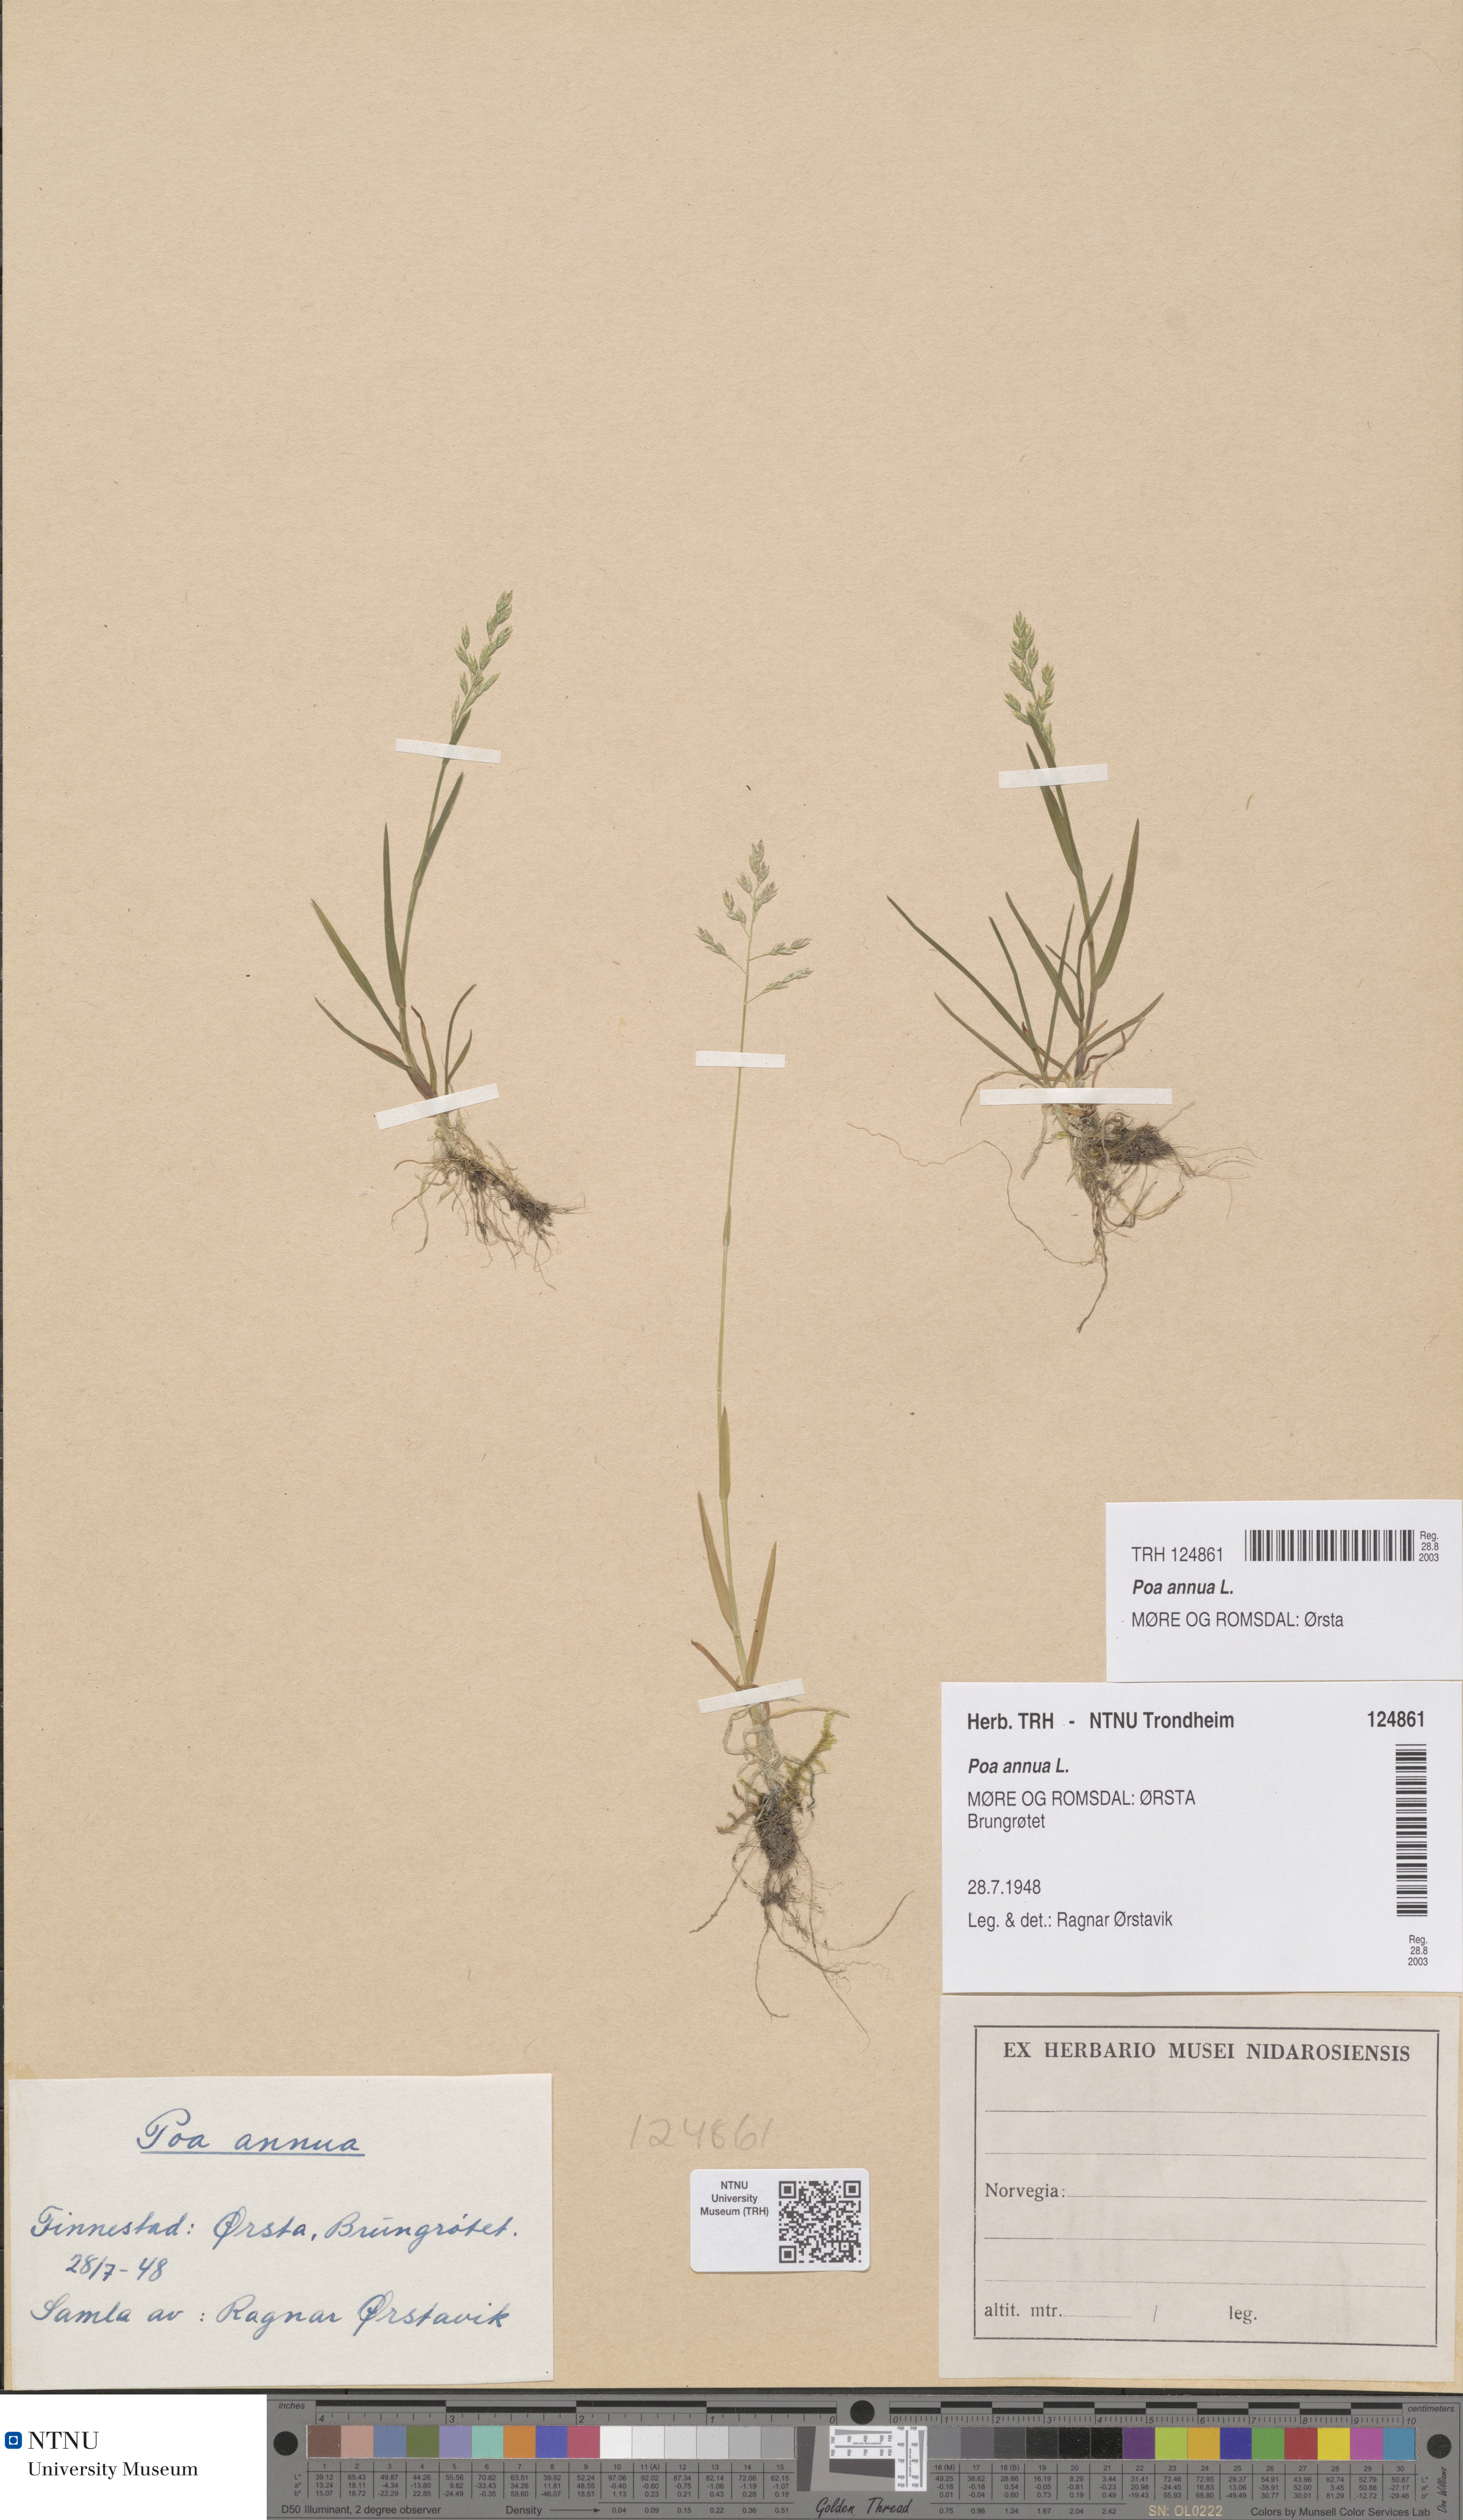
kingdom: Plantae
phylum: Tracheophyta
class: Liliopsida
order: Poales
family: Poaceae
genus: Poa
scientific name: Poa annua
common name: Annual bluegrass
